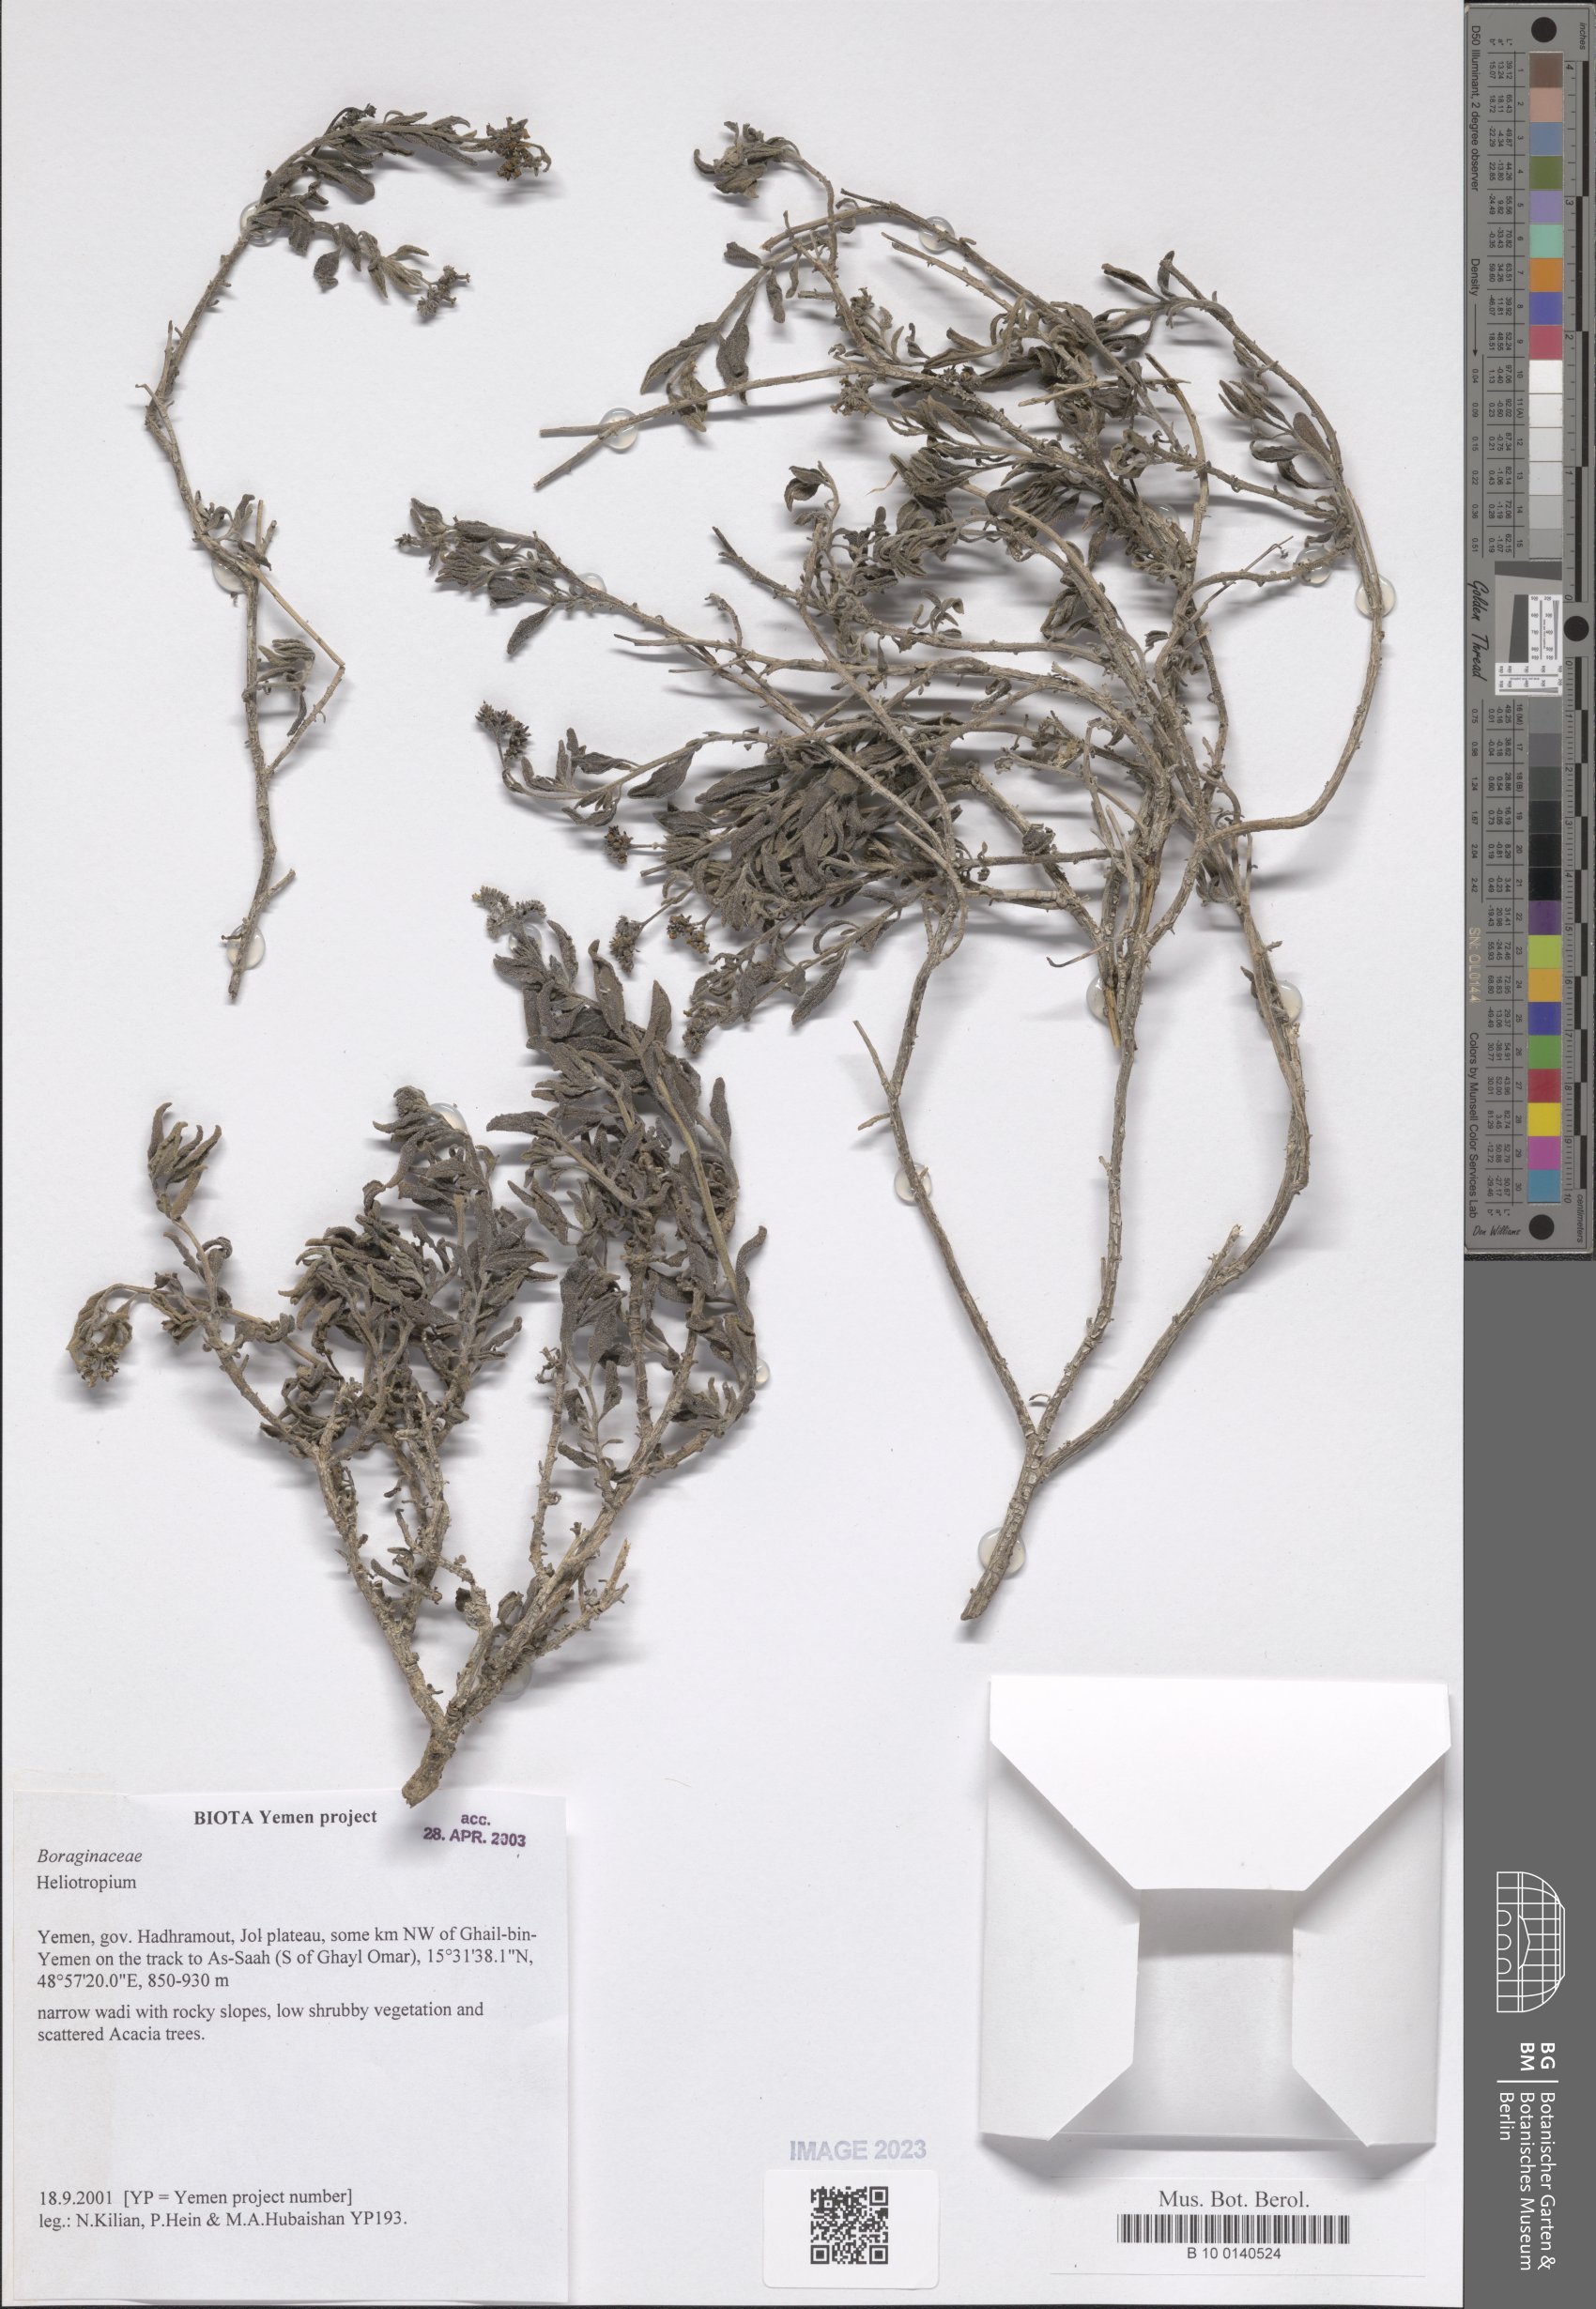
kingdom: Plantae
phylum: Tracheophyta
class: Magnoliopsida
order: Boraginales
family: Heliotropiaceae
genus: Heliotropium
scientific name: Heliotropium
